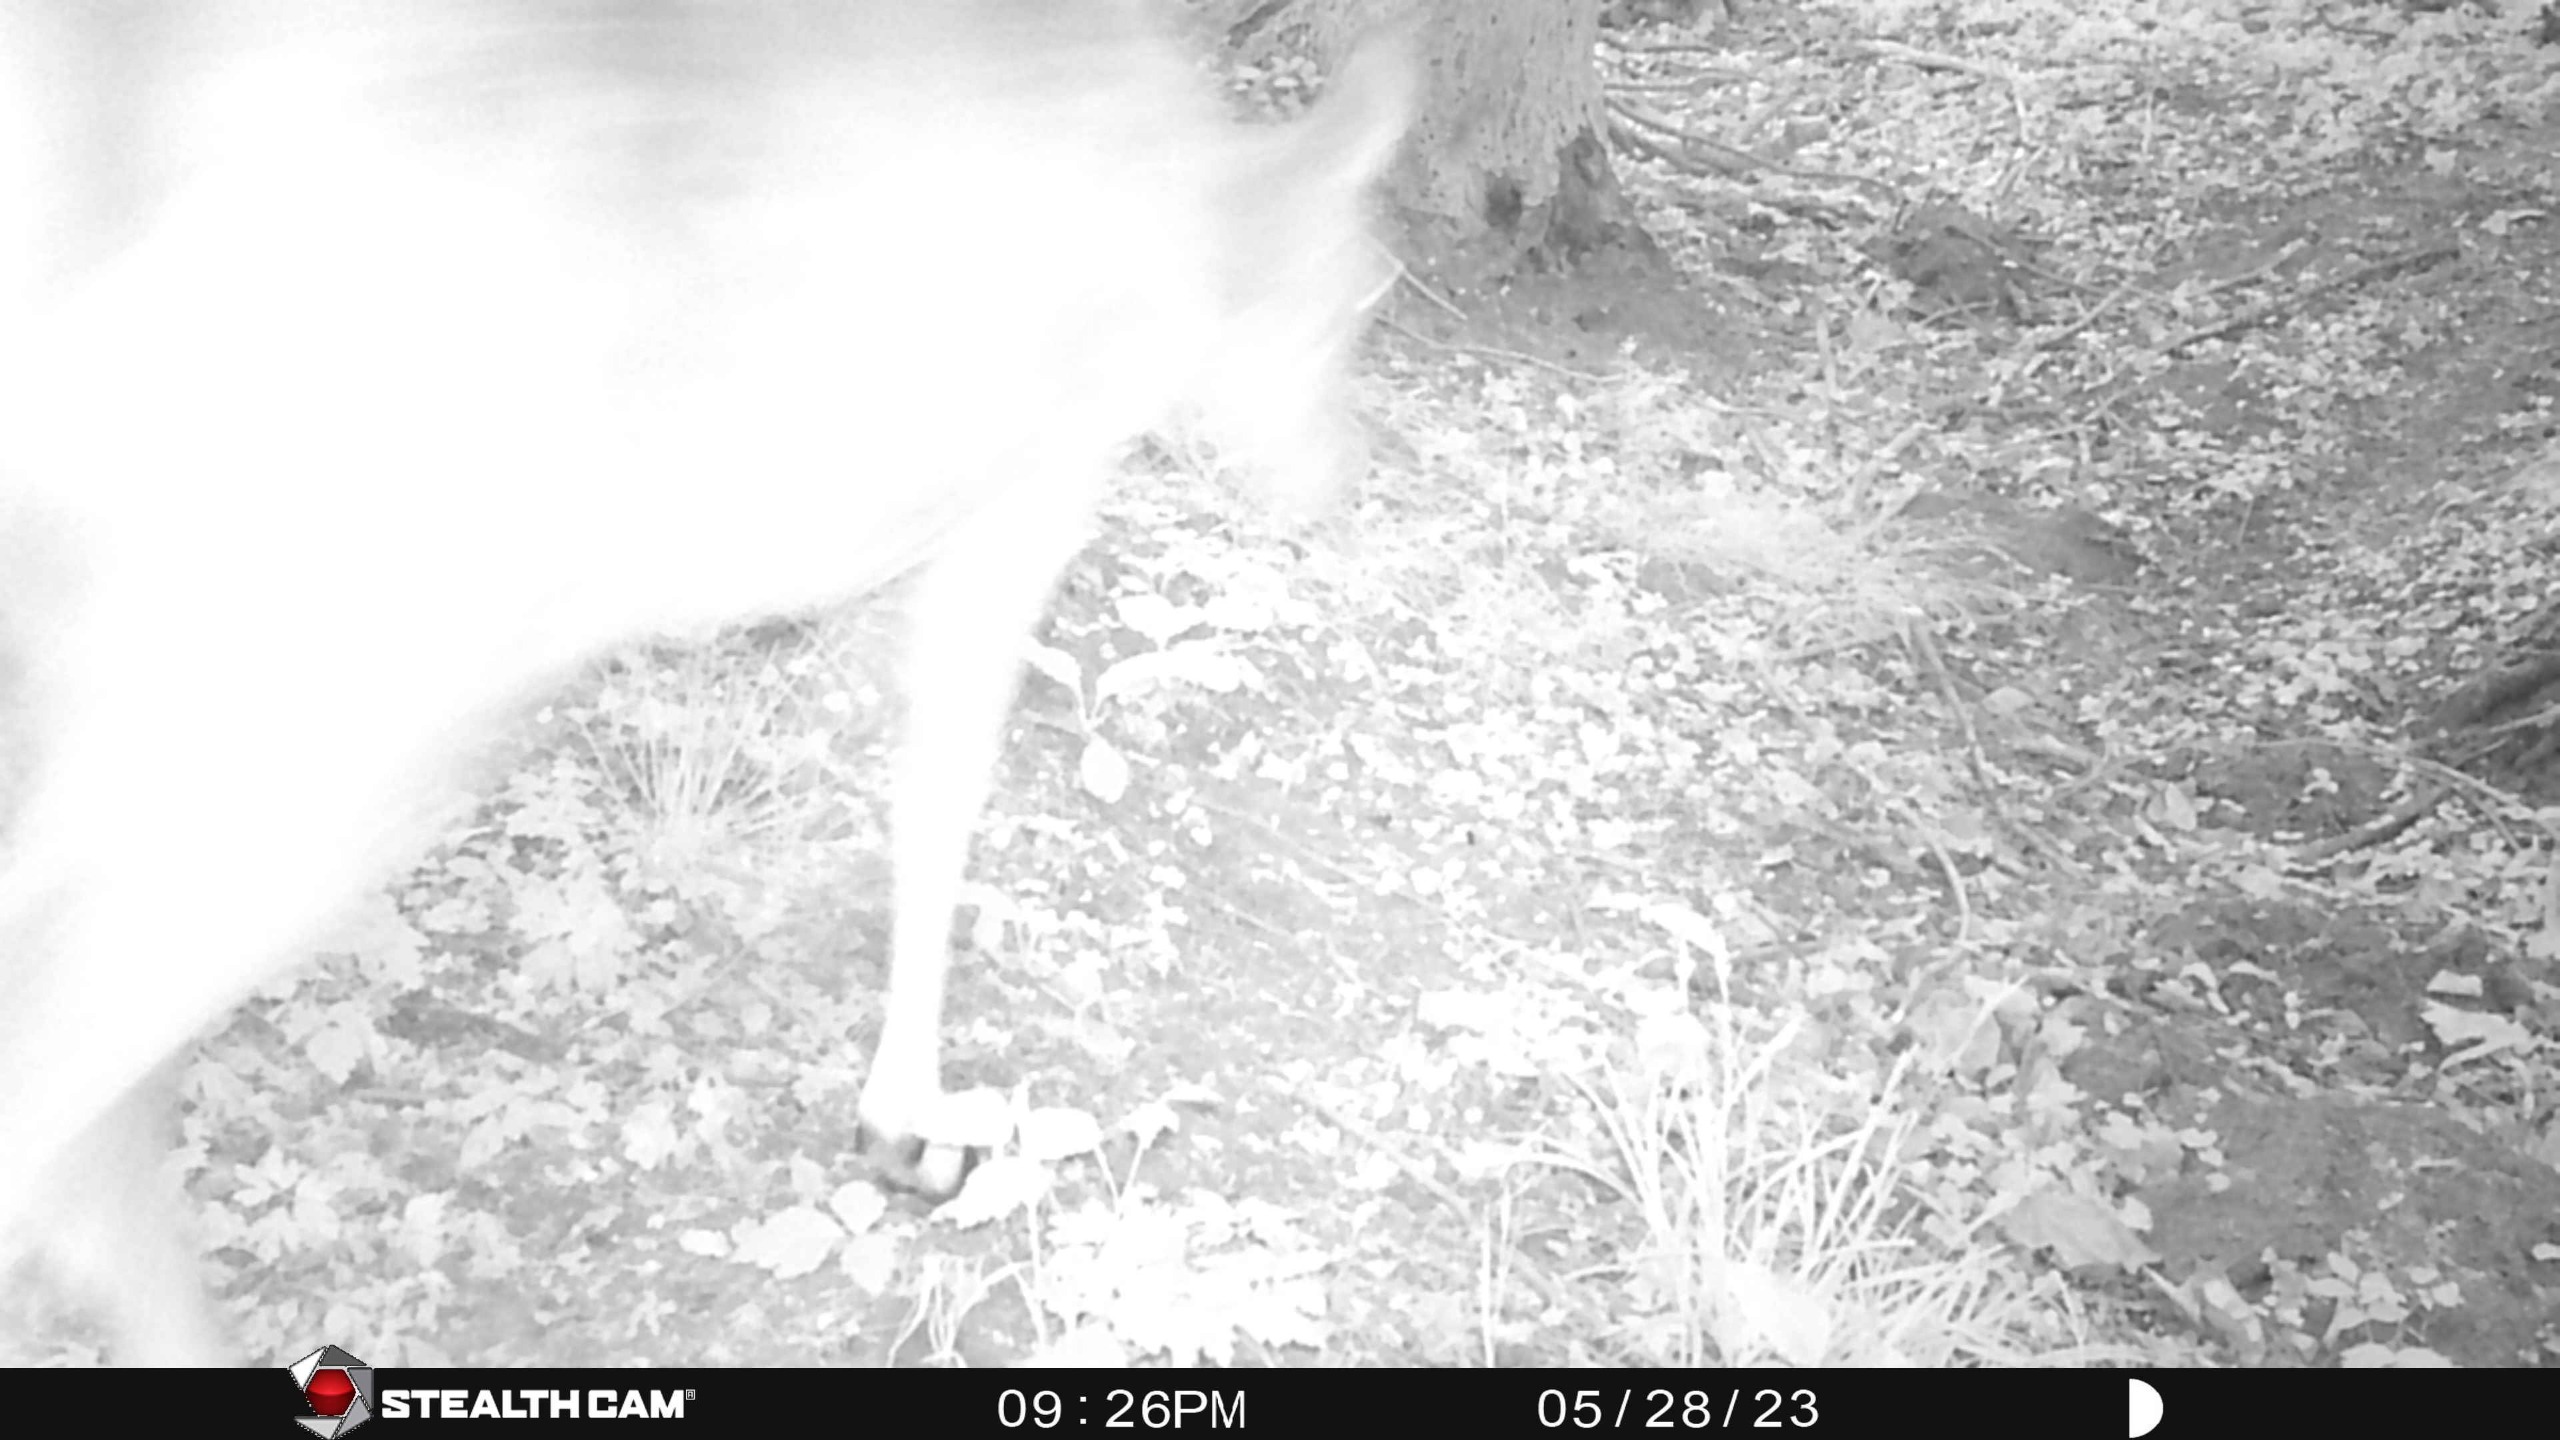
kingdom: Animalia
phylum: Chordata
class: Mammalia
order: Artiodactyla
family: Cervidae
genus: Dama
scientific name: Dama dama
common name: Dådyr
